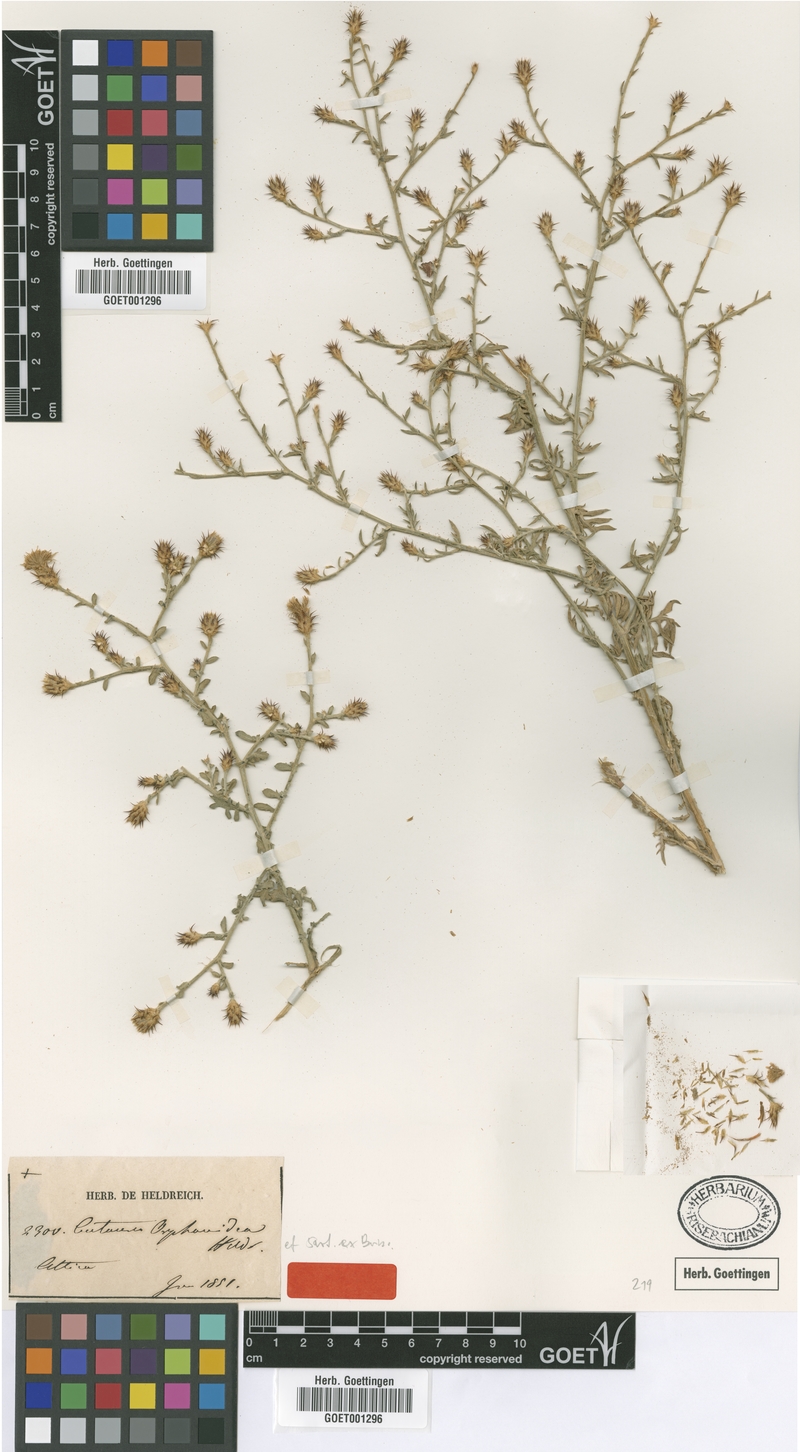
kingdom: Plantae
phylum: Tracheophyta
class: Magnoliopsida
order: Asterales
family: Asteraceae
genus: Centaurea
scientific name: Centaurea orphanidea
